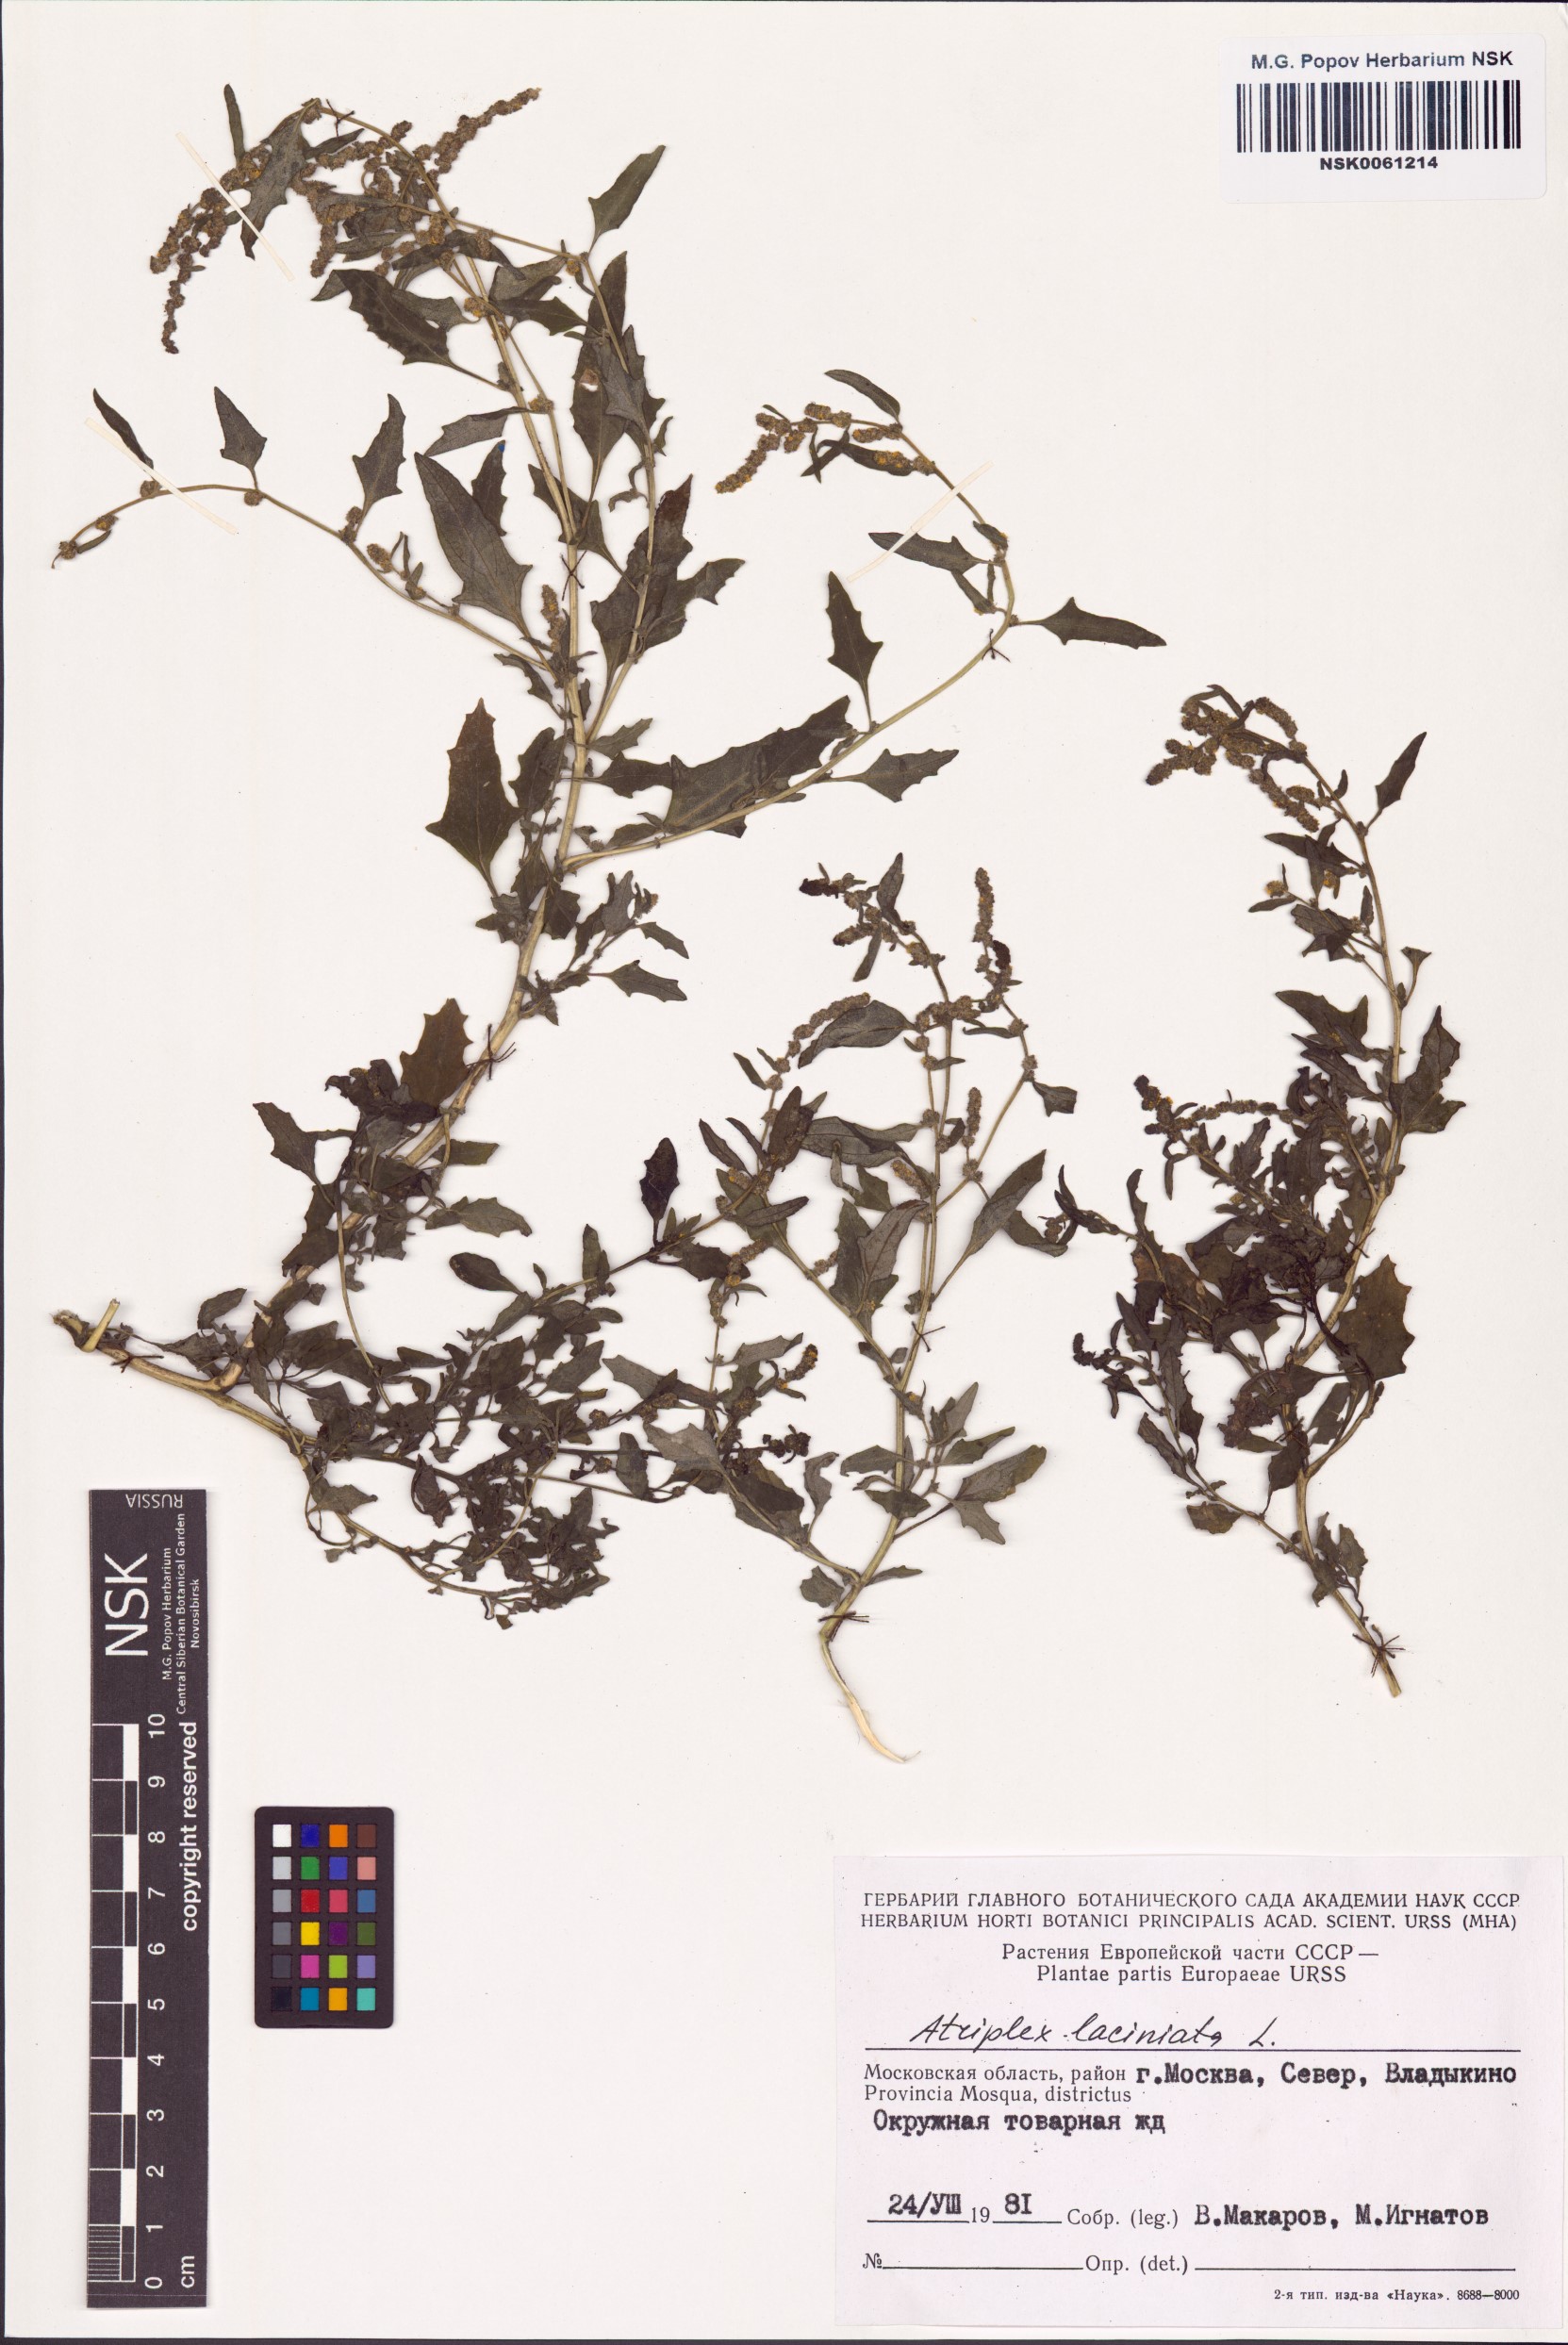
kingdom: Plantae
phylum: Tracheophyta
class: Magnoliopsida
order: Caryophyllales
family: Amaranthaceae
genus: Atriplex
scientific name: Atriplex laciniata
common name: Frosted orache
